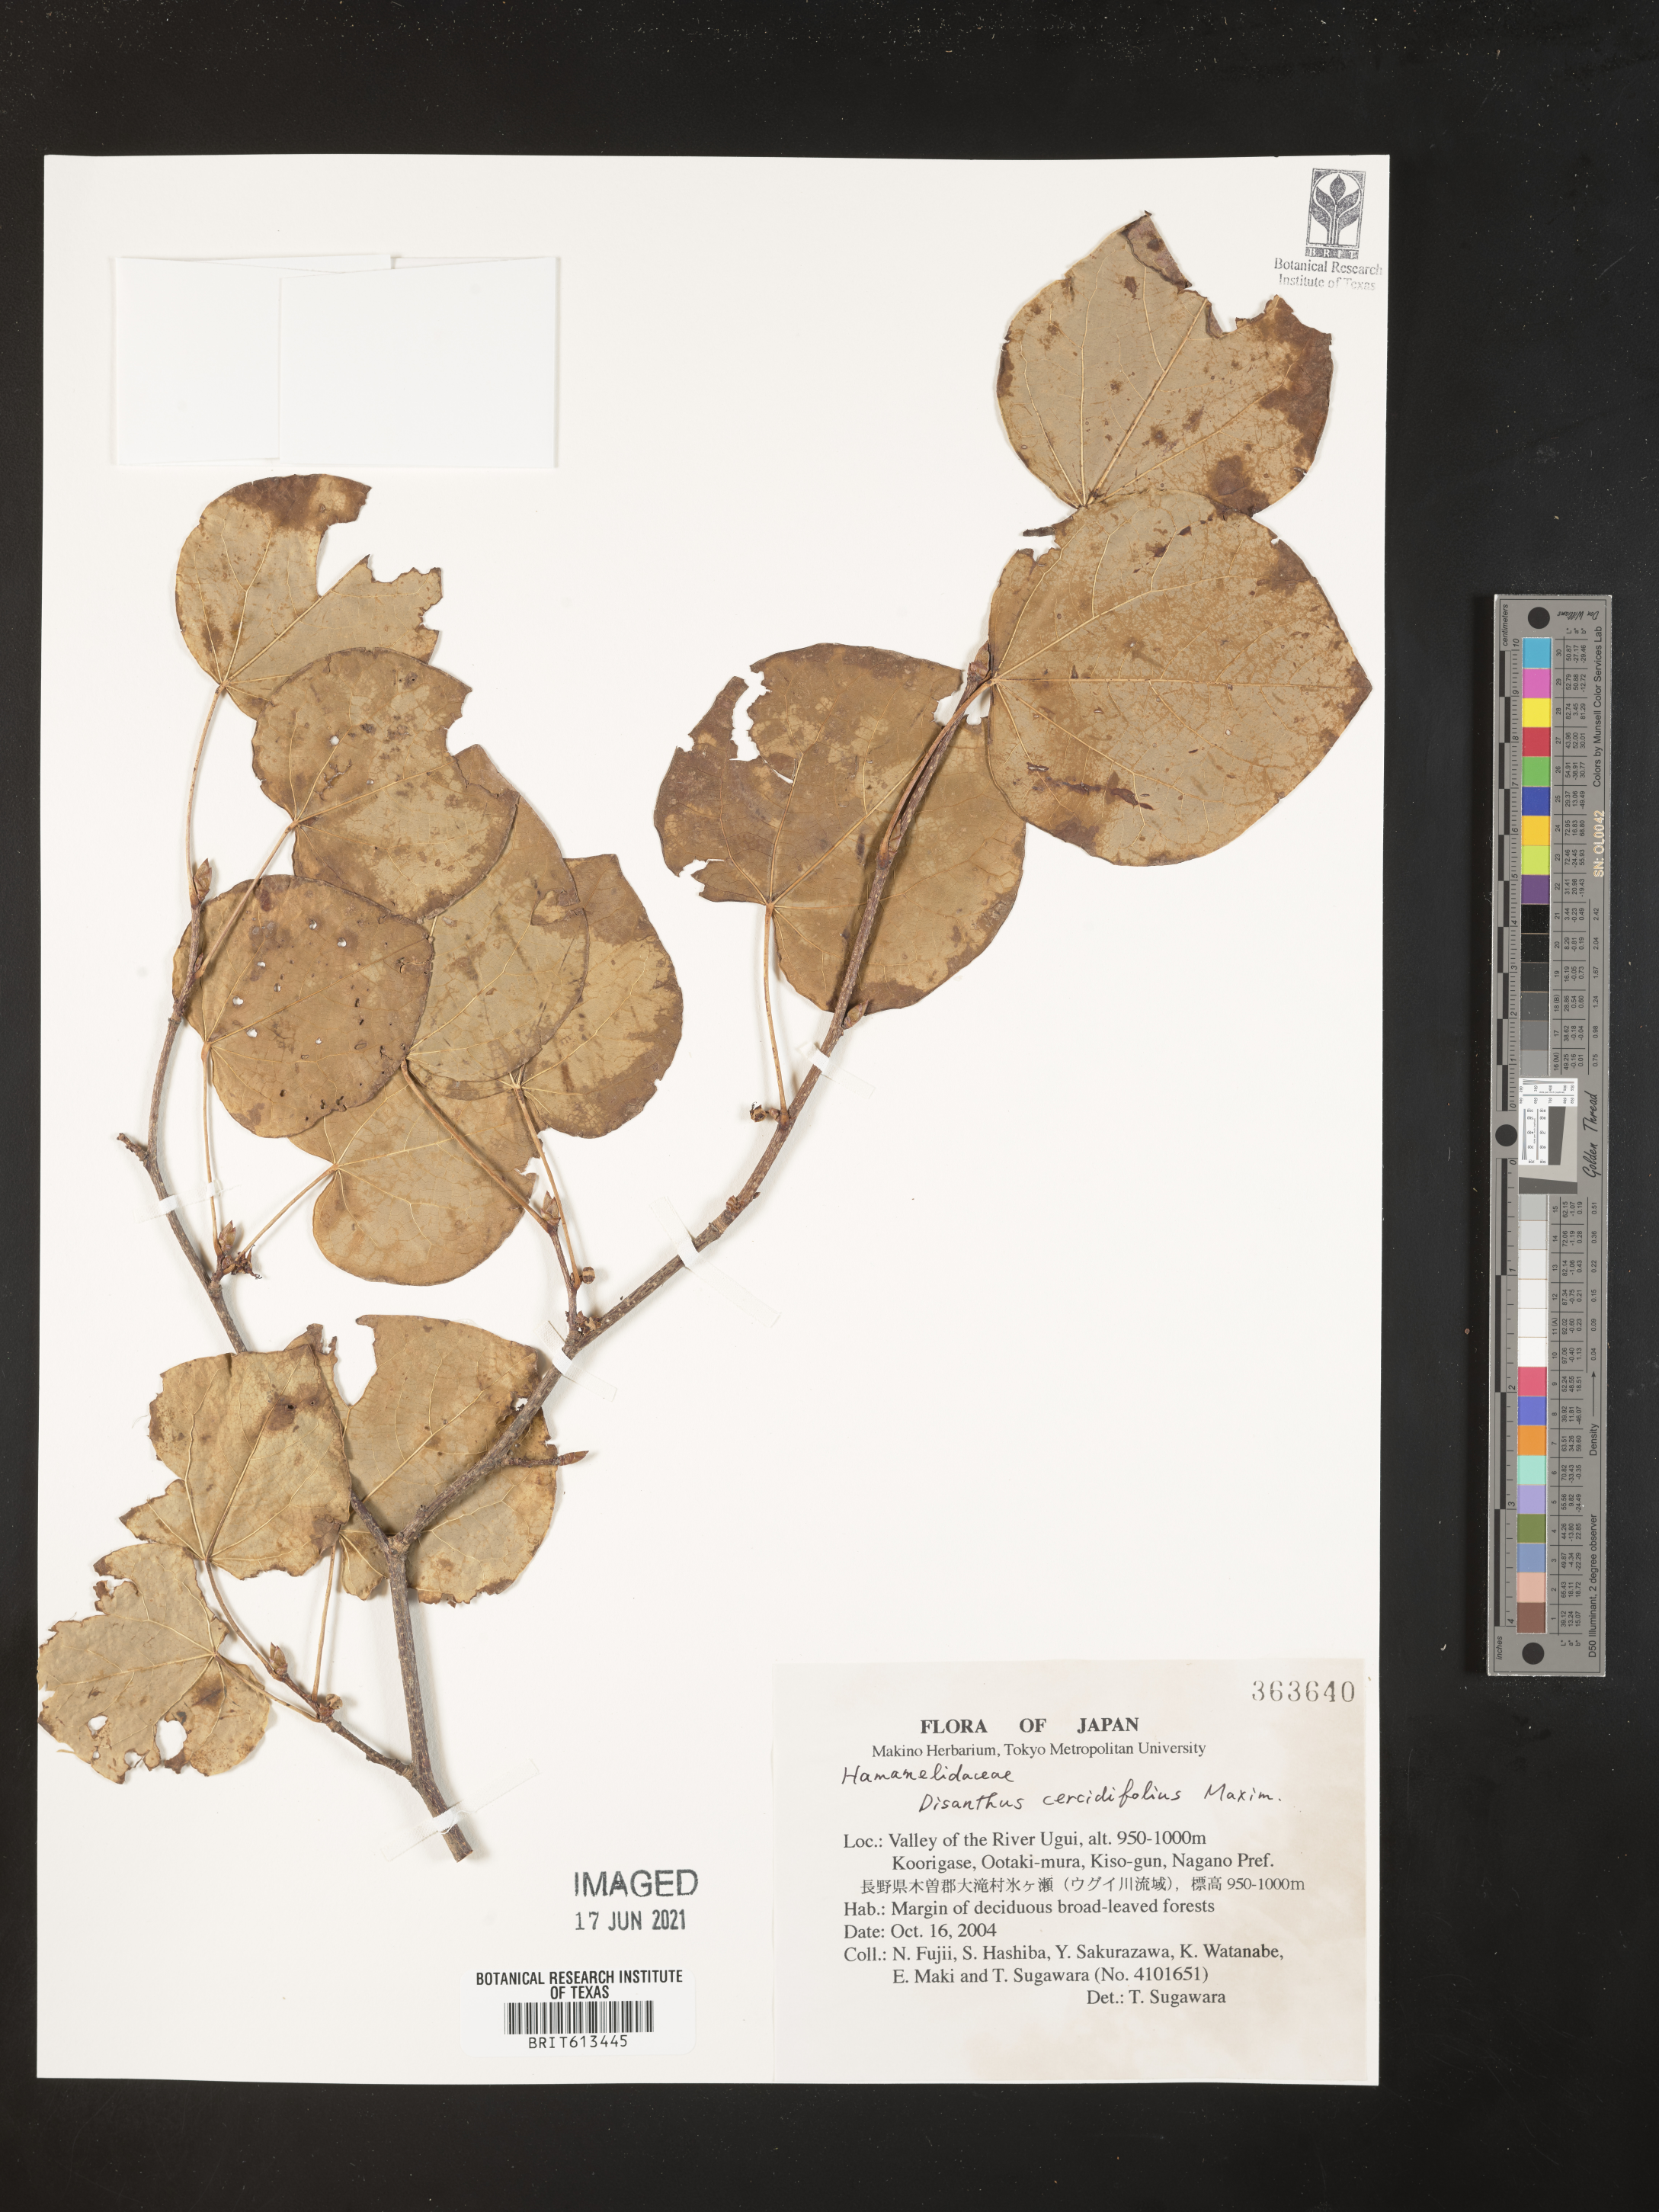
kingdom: Plantae
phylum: Tracheophyta
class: Magnoliopsida
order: Saxifragales
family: Hamamelidaceae
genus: Disanthus
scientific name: Disanthus cercidifolius
